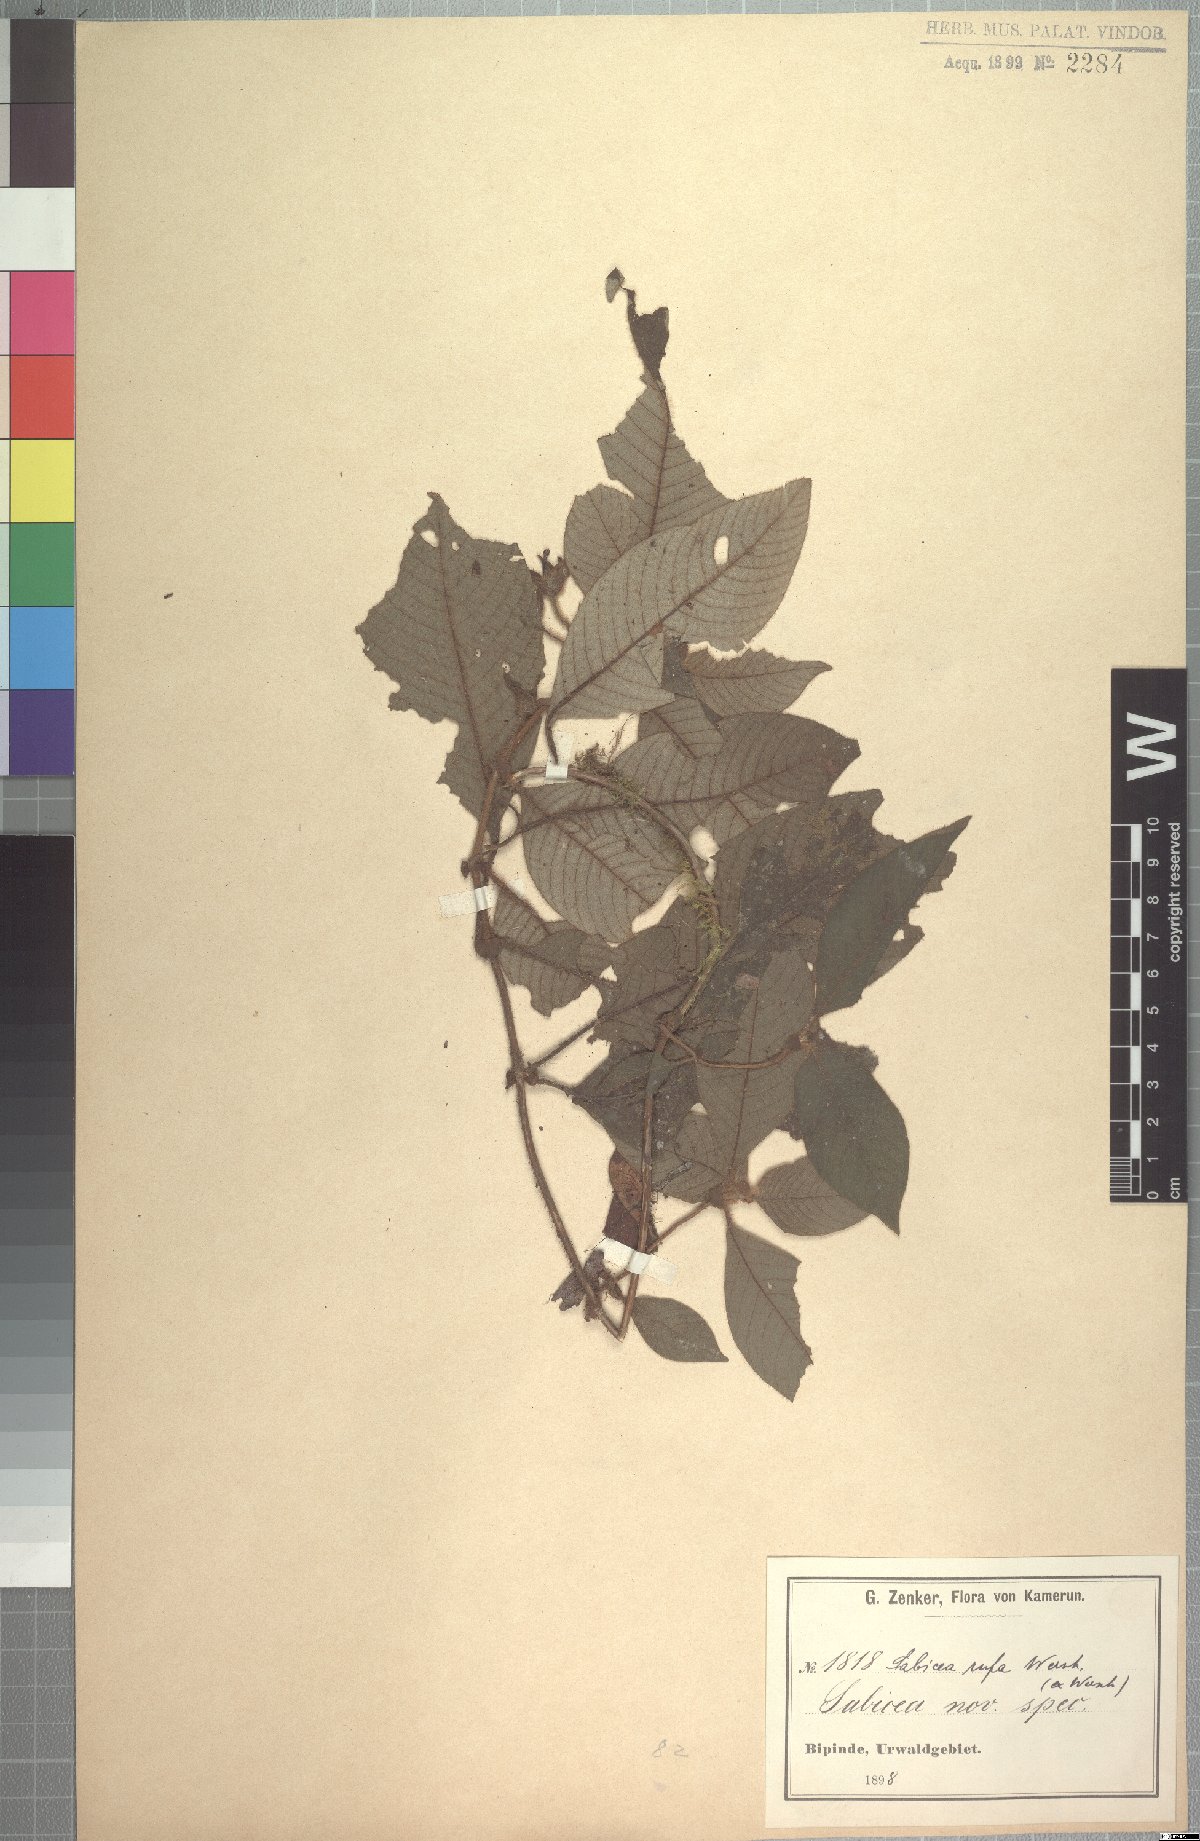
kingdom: Plantae
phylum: Tracheophyta
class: Magnoliopsida
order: Gentianales
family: Rubiaceae
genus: Sabicea
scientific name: Sabicea rufa
